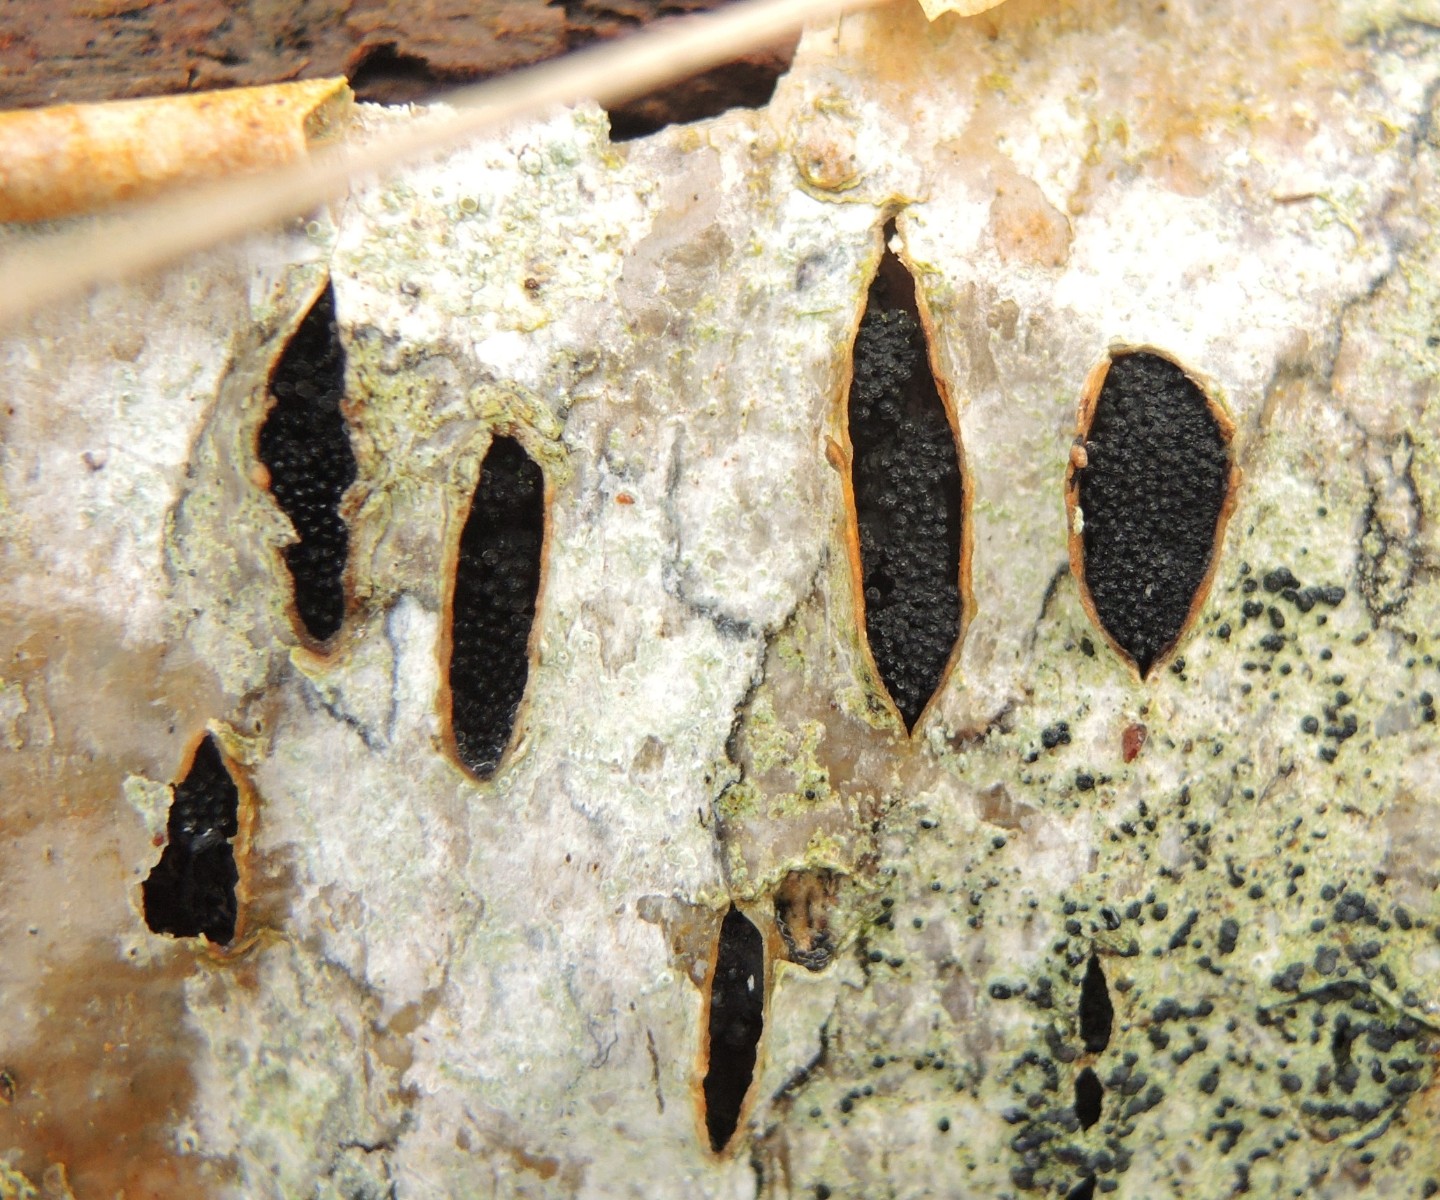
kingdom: Fungi
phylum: Ascomycota
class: Sordariomycetes
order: Xylariales
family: Diatrypaceae
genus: Eutypella
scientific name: Eutypella sorbi
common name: rønne-kulskorpe
